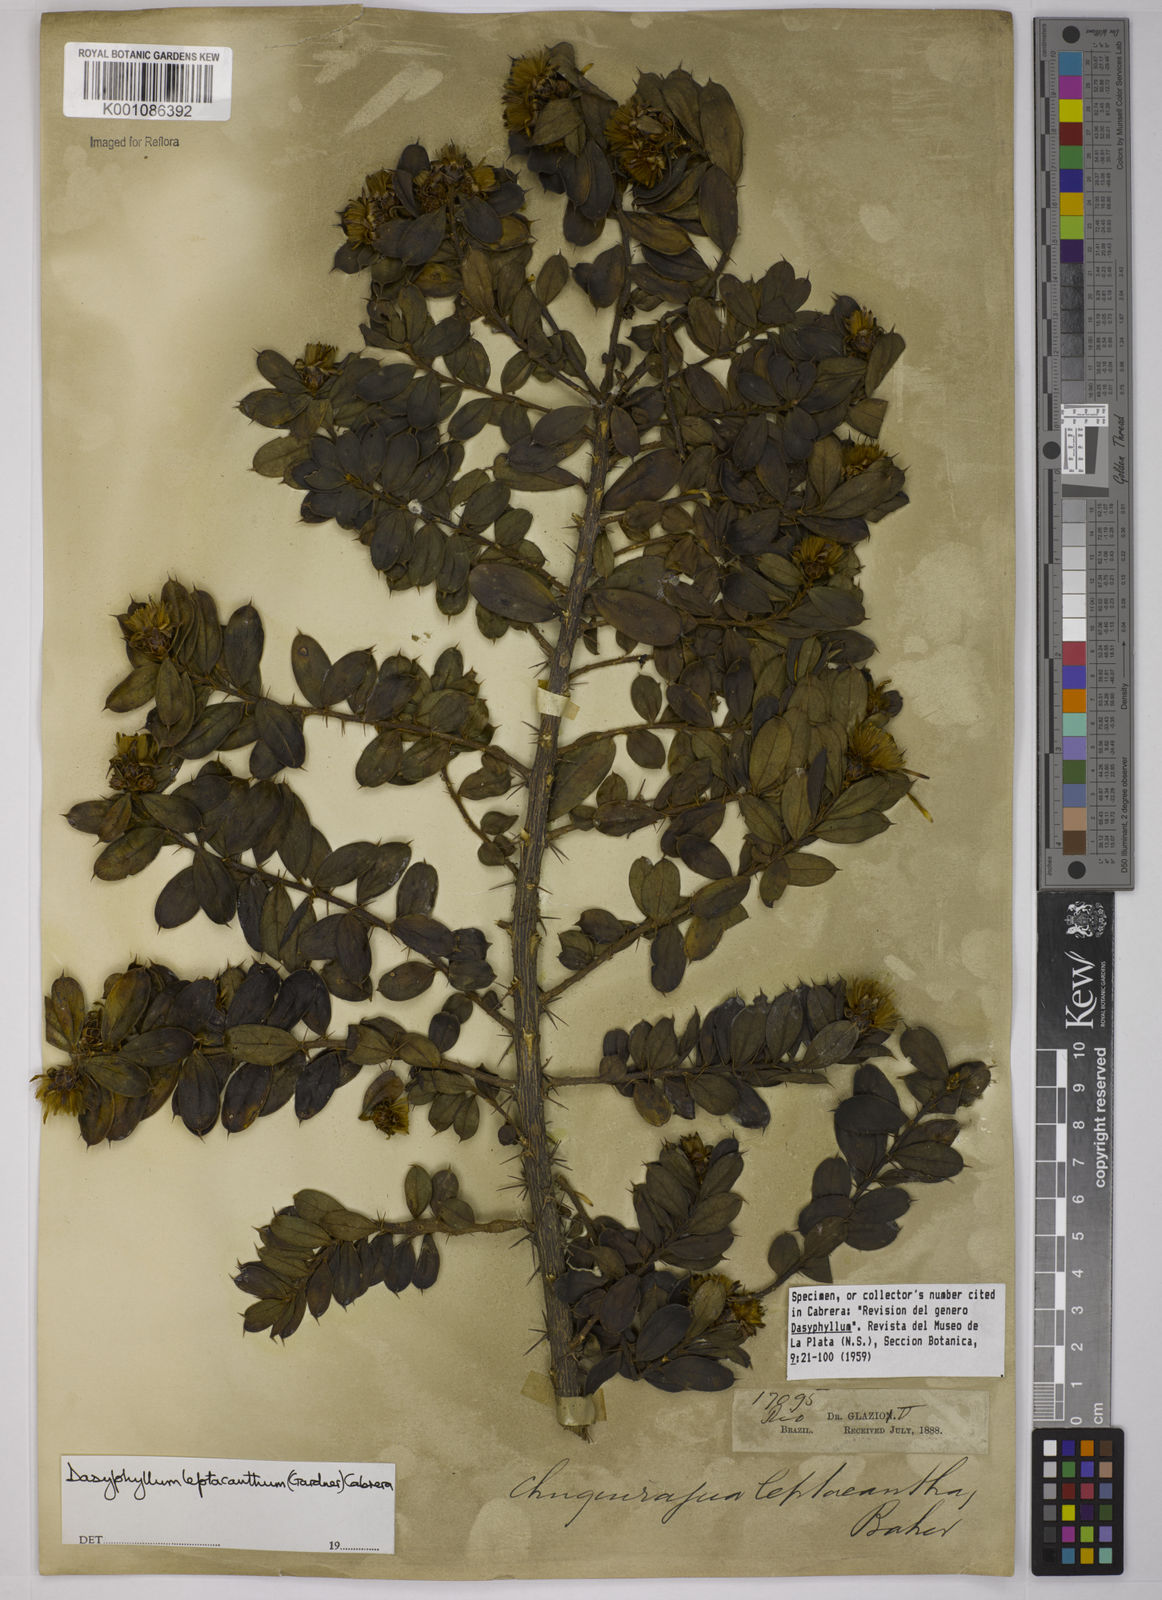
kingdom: Plantae
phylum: Tracheophyta
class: Magnoliopsida
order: Asterales
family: Asteraceae
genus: Dasyphyllum
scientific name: Dasyphyllum leptacanthum
